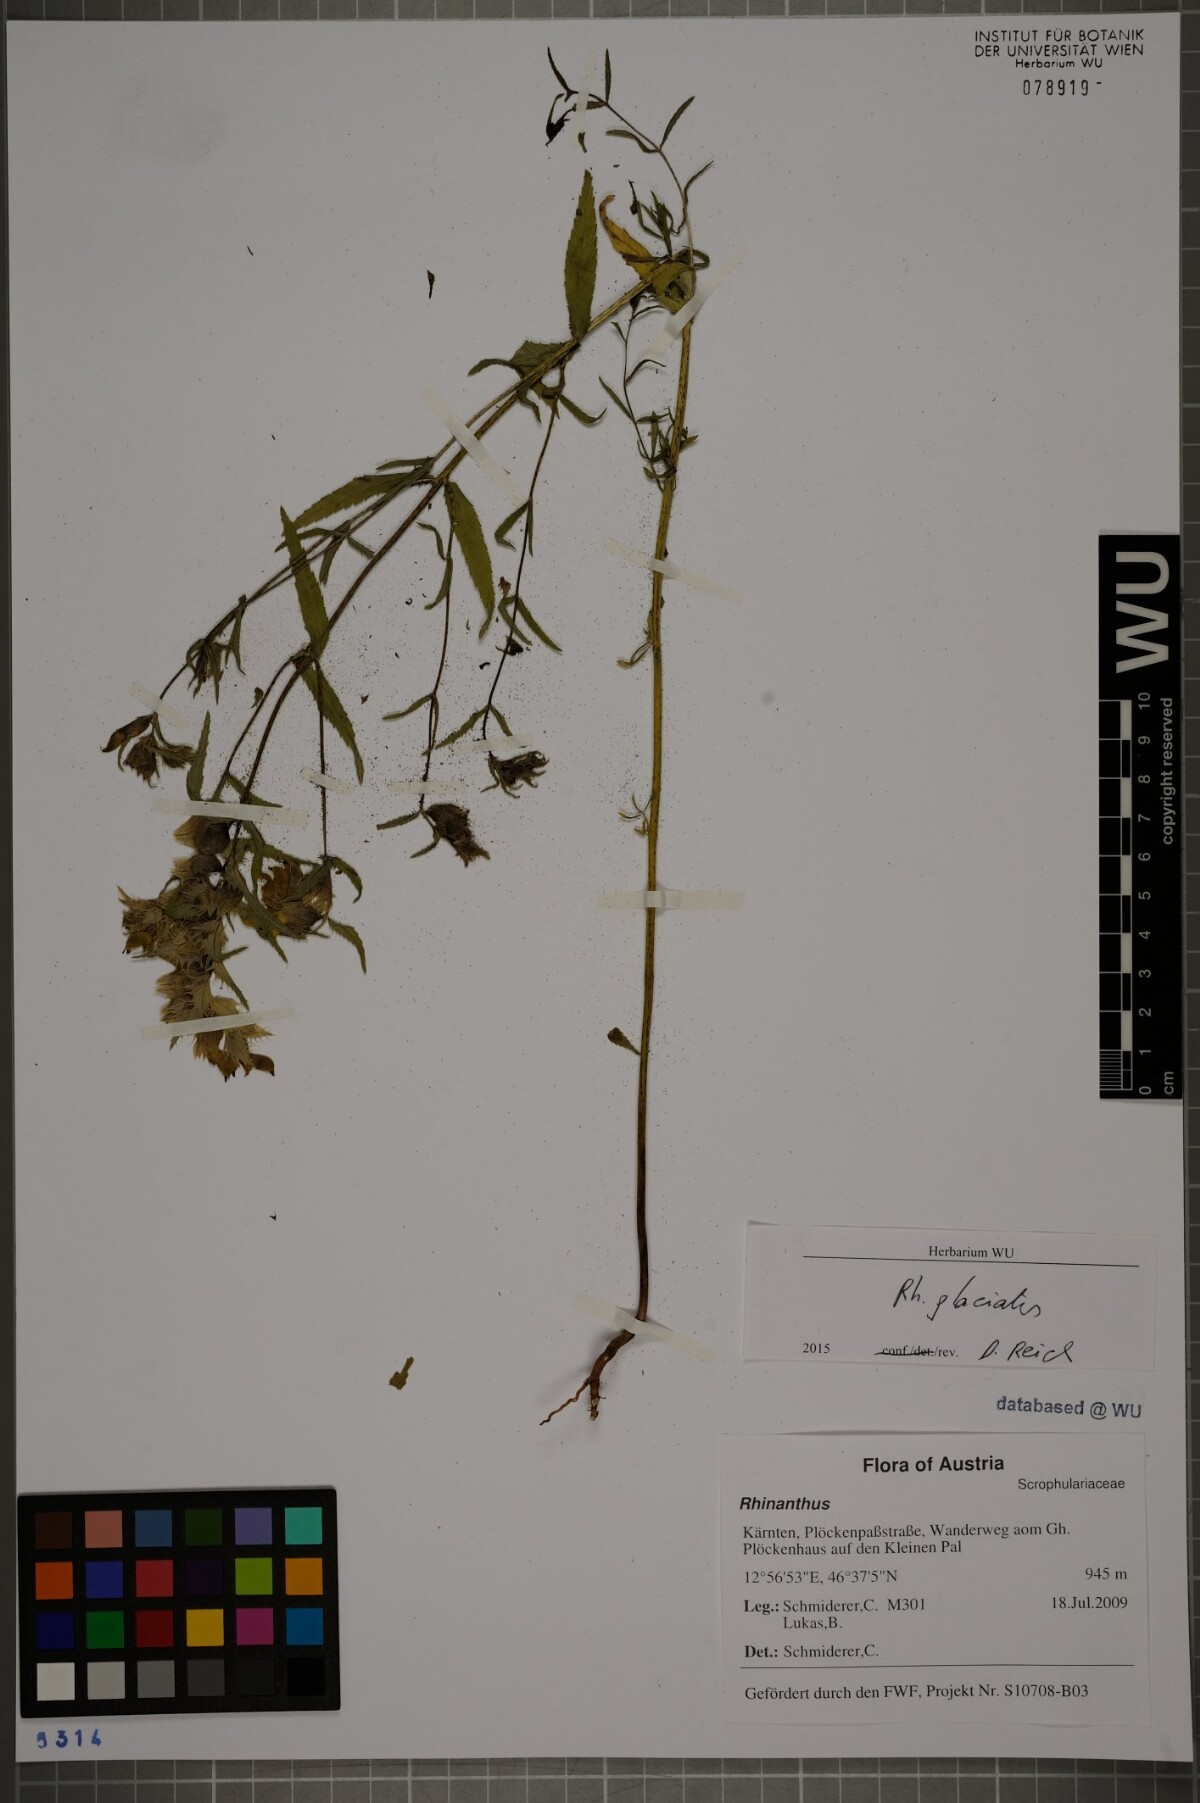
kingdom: Plantae
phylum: Tracheophyta
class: Magnoliopsida
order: Lamiales
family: Orobanchaceae
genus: Rhinanthus
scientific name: Rhinanthus glacialis
